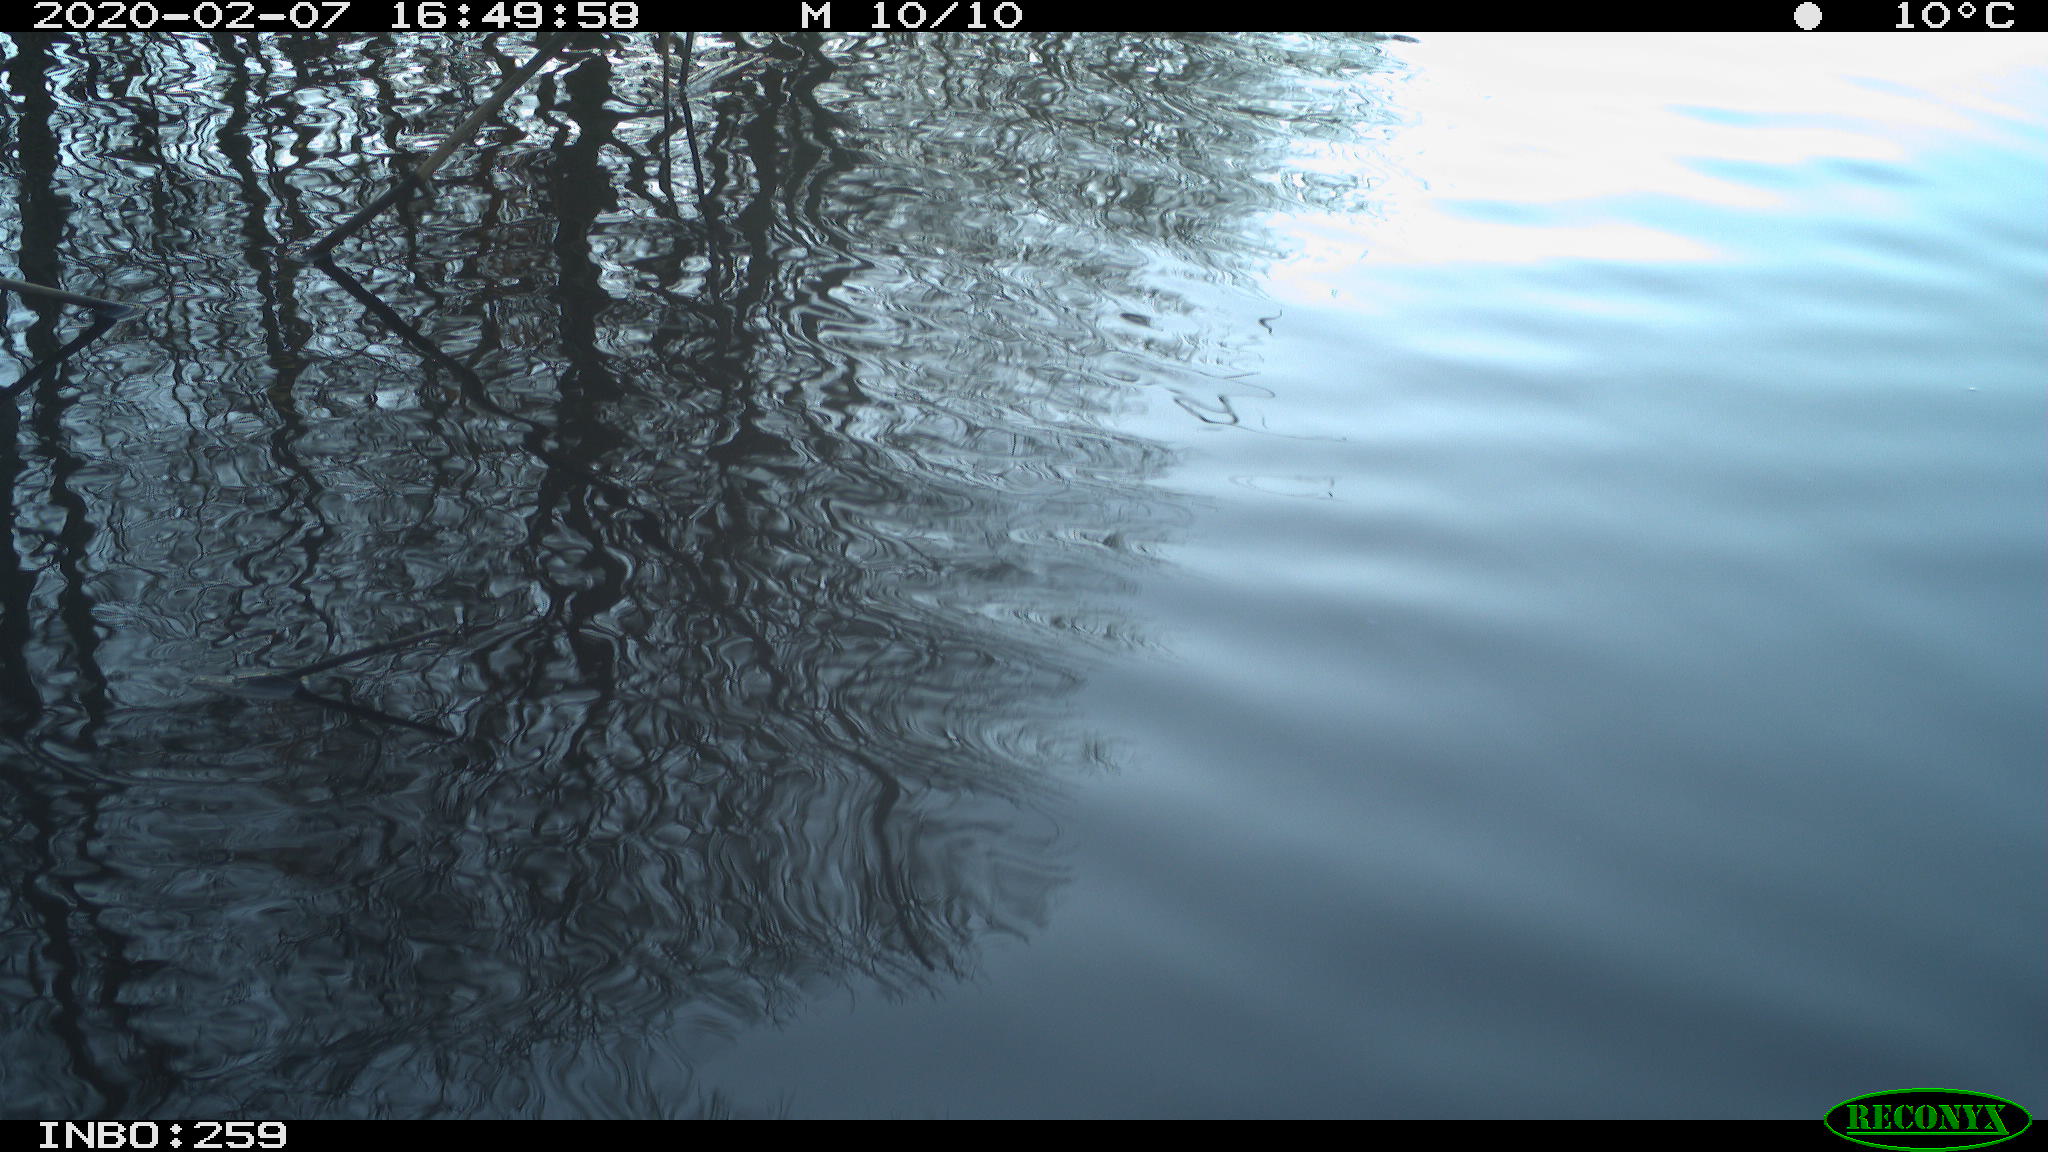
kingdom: Animalia
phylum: Chordata
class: Aves
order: Gruiformes
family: Rallidae
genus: Gallinula
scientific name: Gallinula chloropus
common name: Common moorhen
